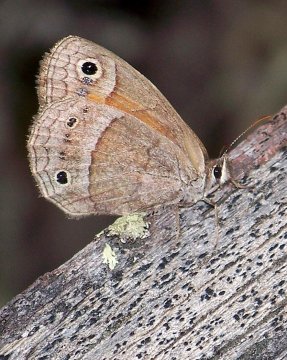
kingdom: Animalia
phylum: Arthropoda
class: Insecta
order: Lepidoptera
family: Nymphalidae
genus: Euptychia
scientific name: Euptychia rubricata
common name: Red Satyr
